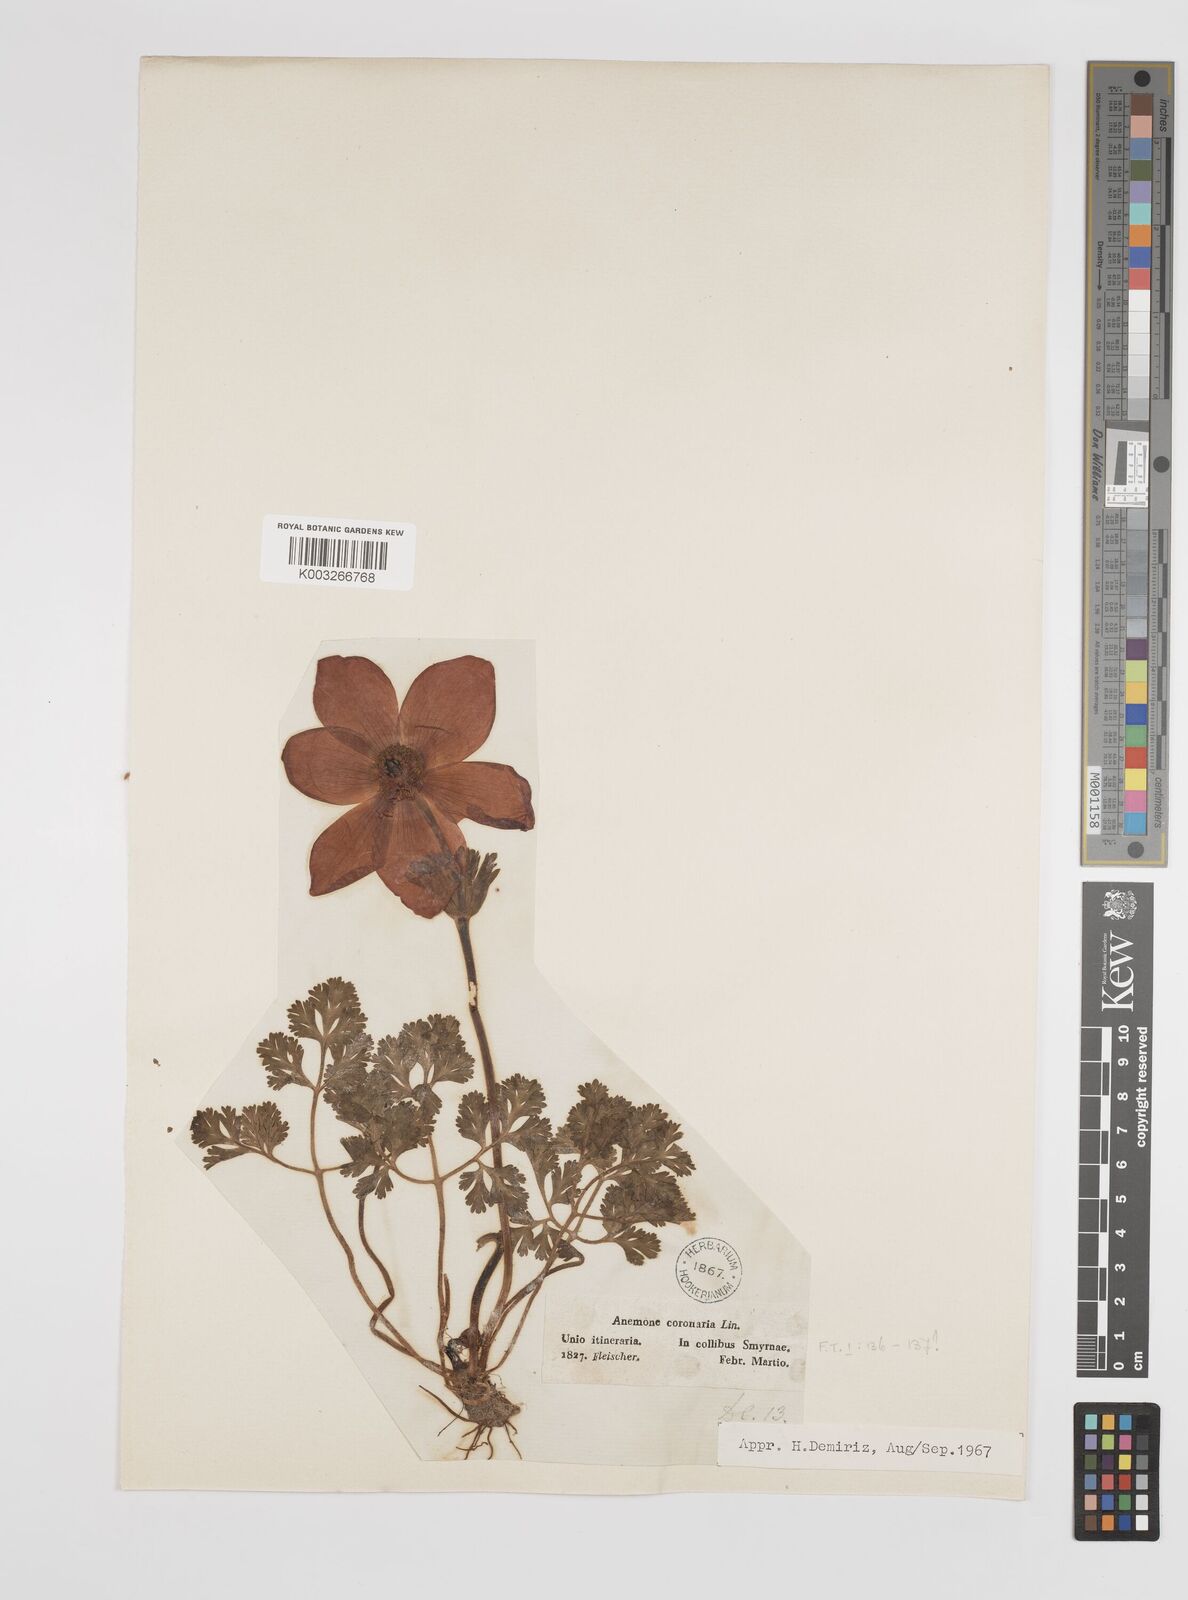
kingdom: Plantae
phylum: Tracheophyta
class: Magnoliopsida
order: Ranunculales
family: Ranunculaceae
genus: Anemone
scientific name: Anemone coronaria
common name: Poppy anemone
